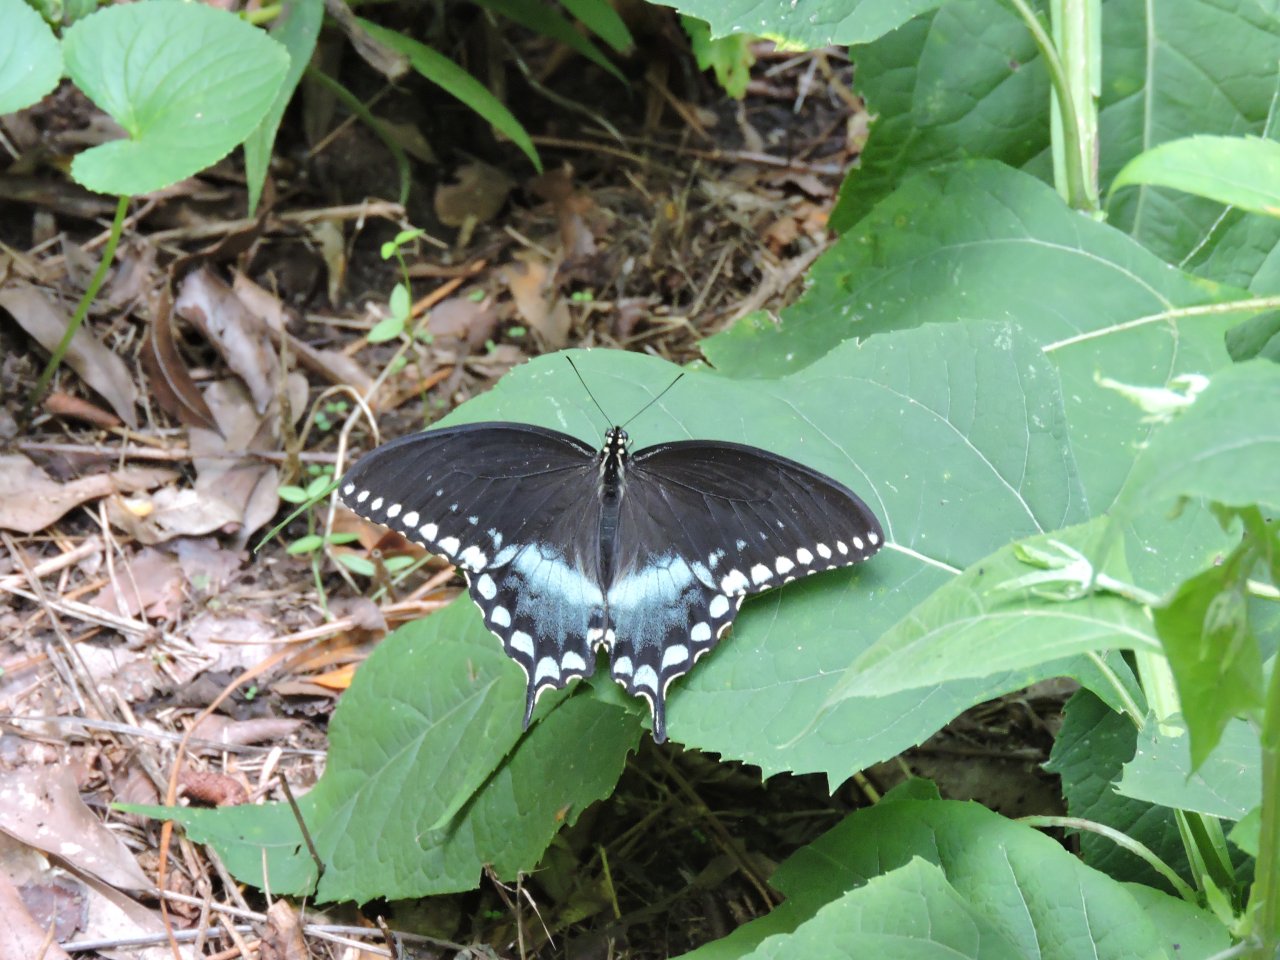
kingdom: Animalia
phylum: Arthropoda
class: Insecta
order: Lepidoptera
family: Papilionidae
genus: Pterourus
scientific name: Pterourus troilus
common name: Spicebush Swallowtail
